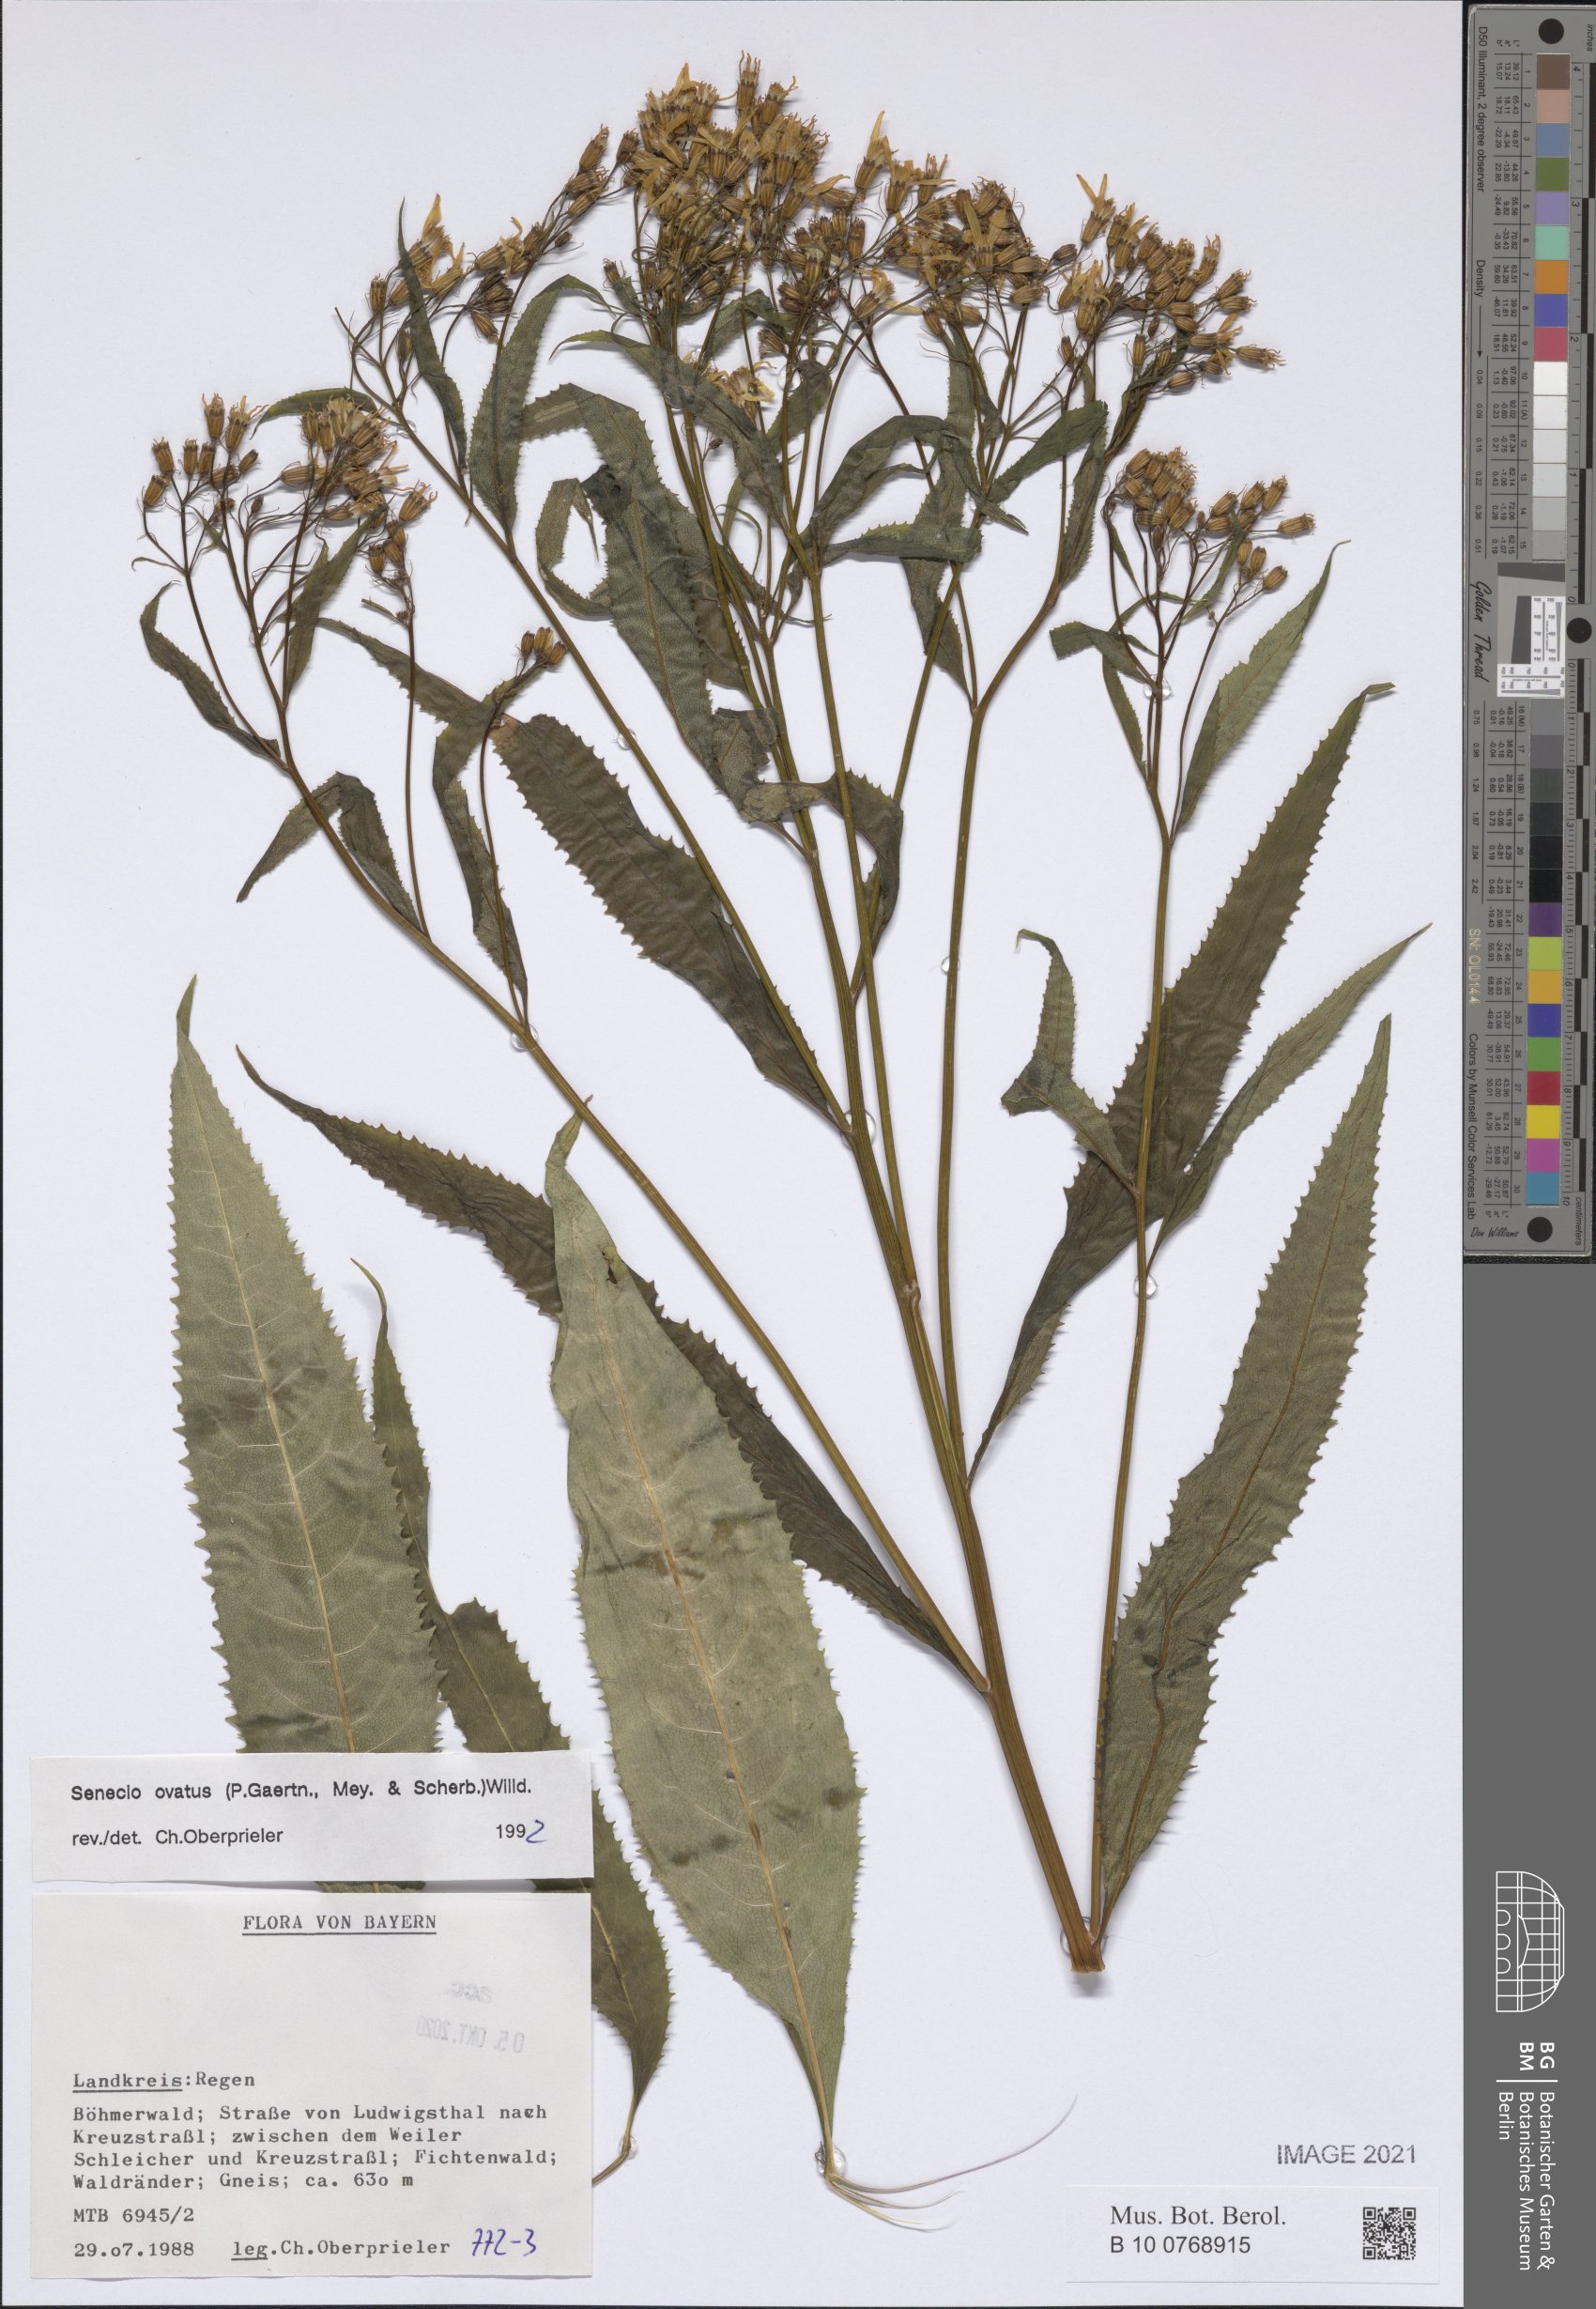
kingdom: Plantae
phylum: Tracheophyta
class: Magnoliopsida
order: Asterales
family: Asteraceae
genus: Senecio
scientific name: Senecio ovatus
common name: Wood ragwort
